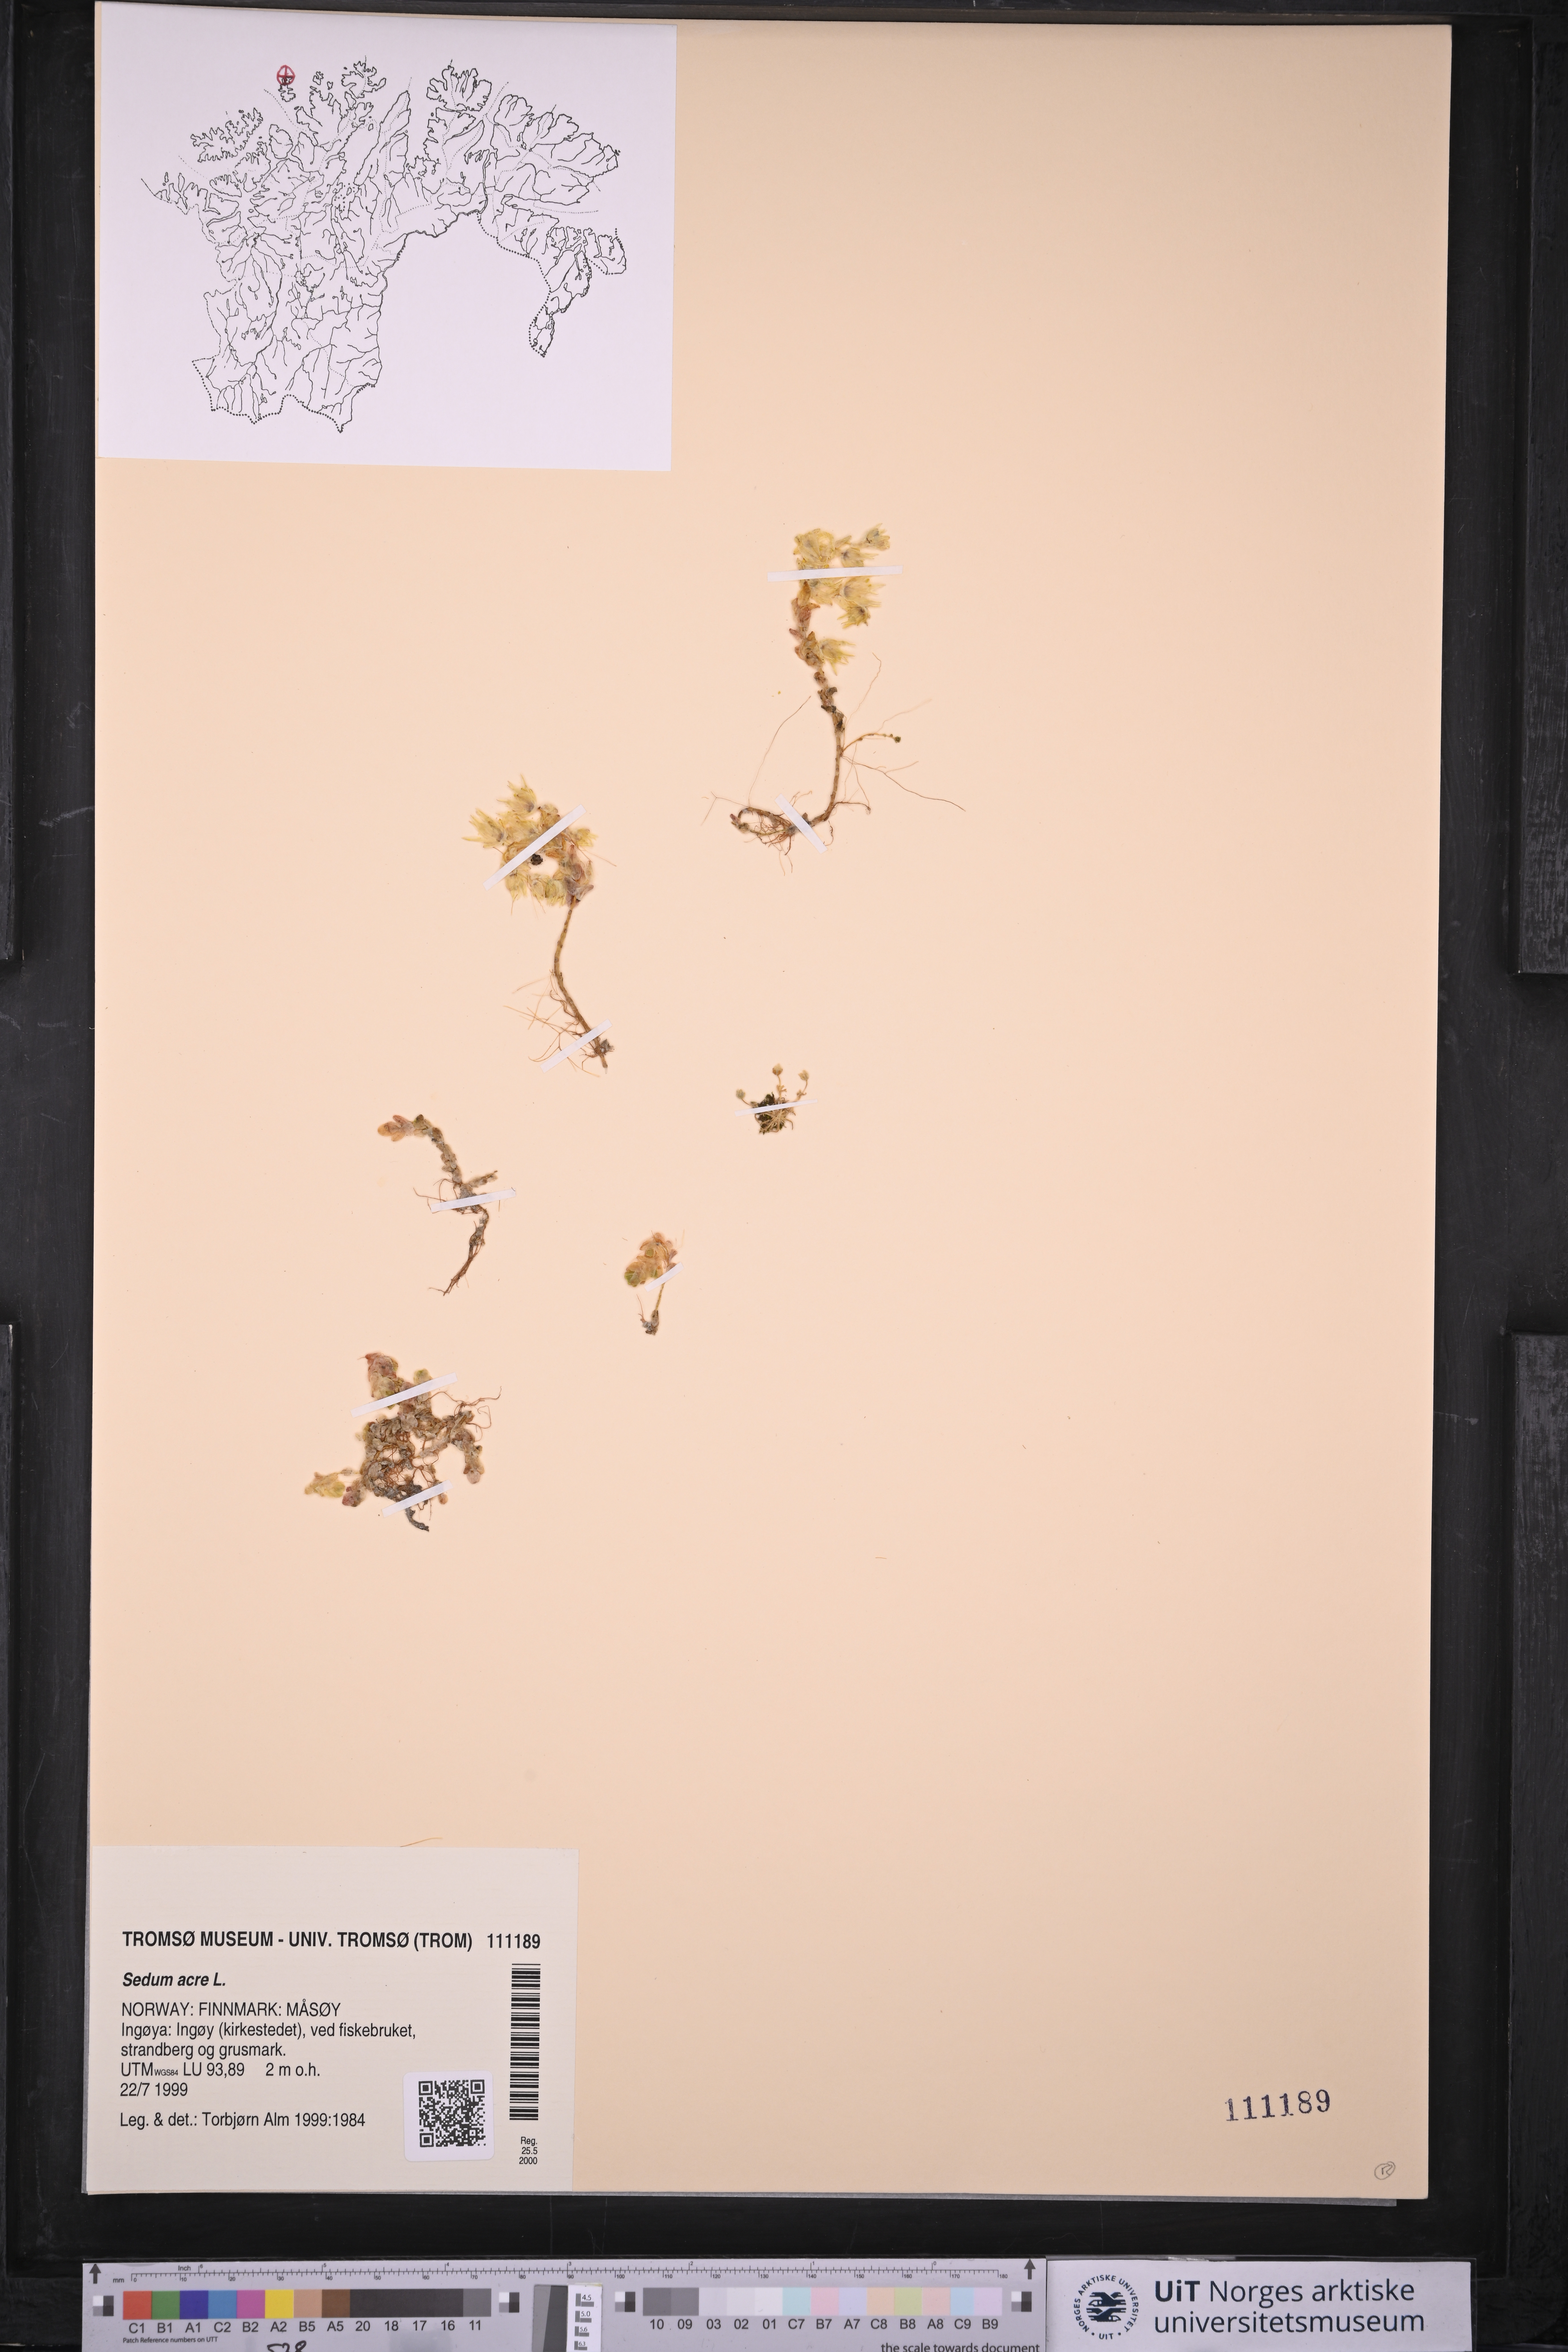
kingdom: Plantae
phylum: Tracheophyta
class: Magnoliopsida
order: Saxifragales
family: Crassulaceae
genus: Sedum
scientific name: Sedum acre
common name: Biting stonecrop
